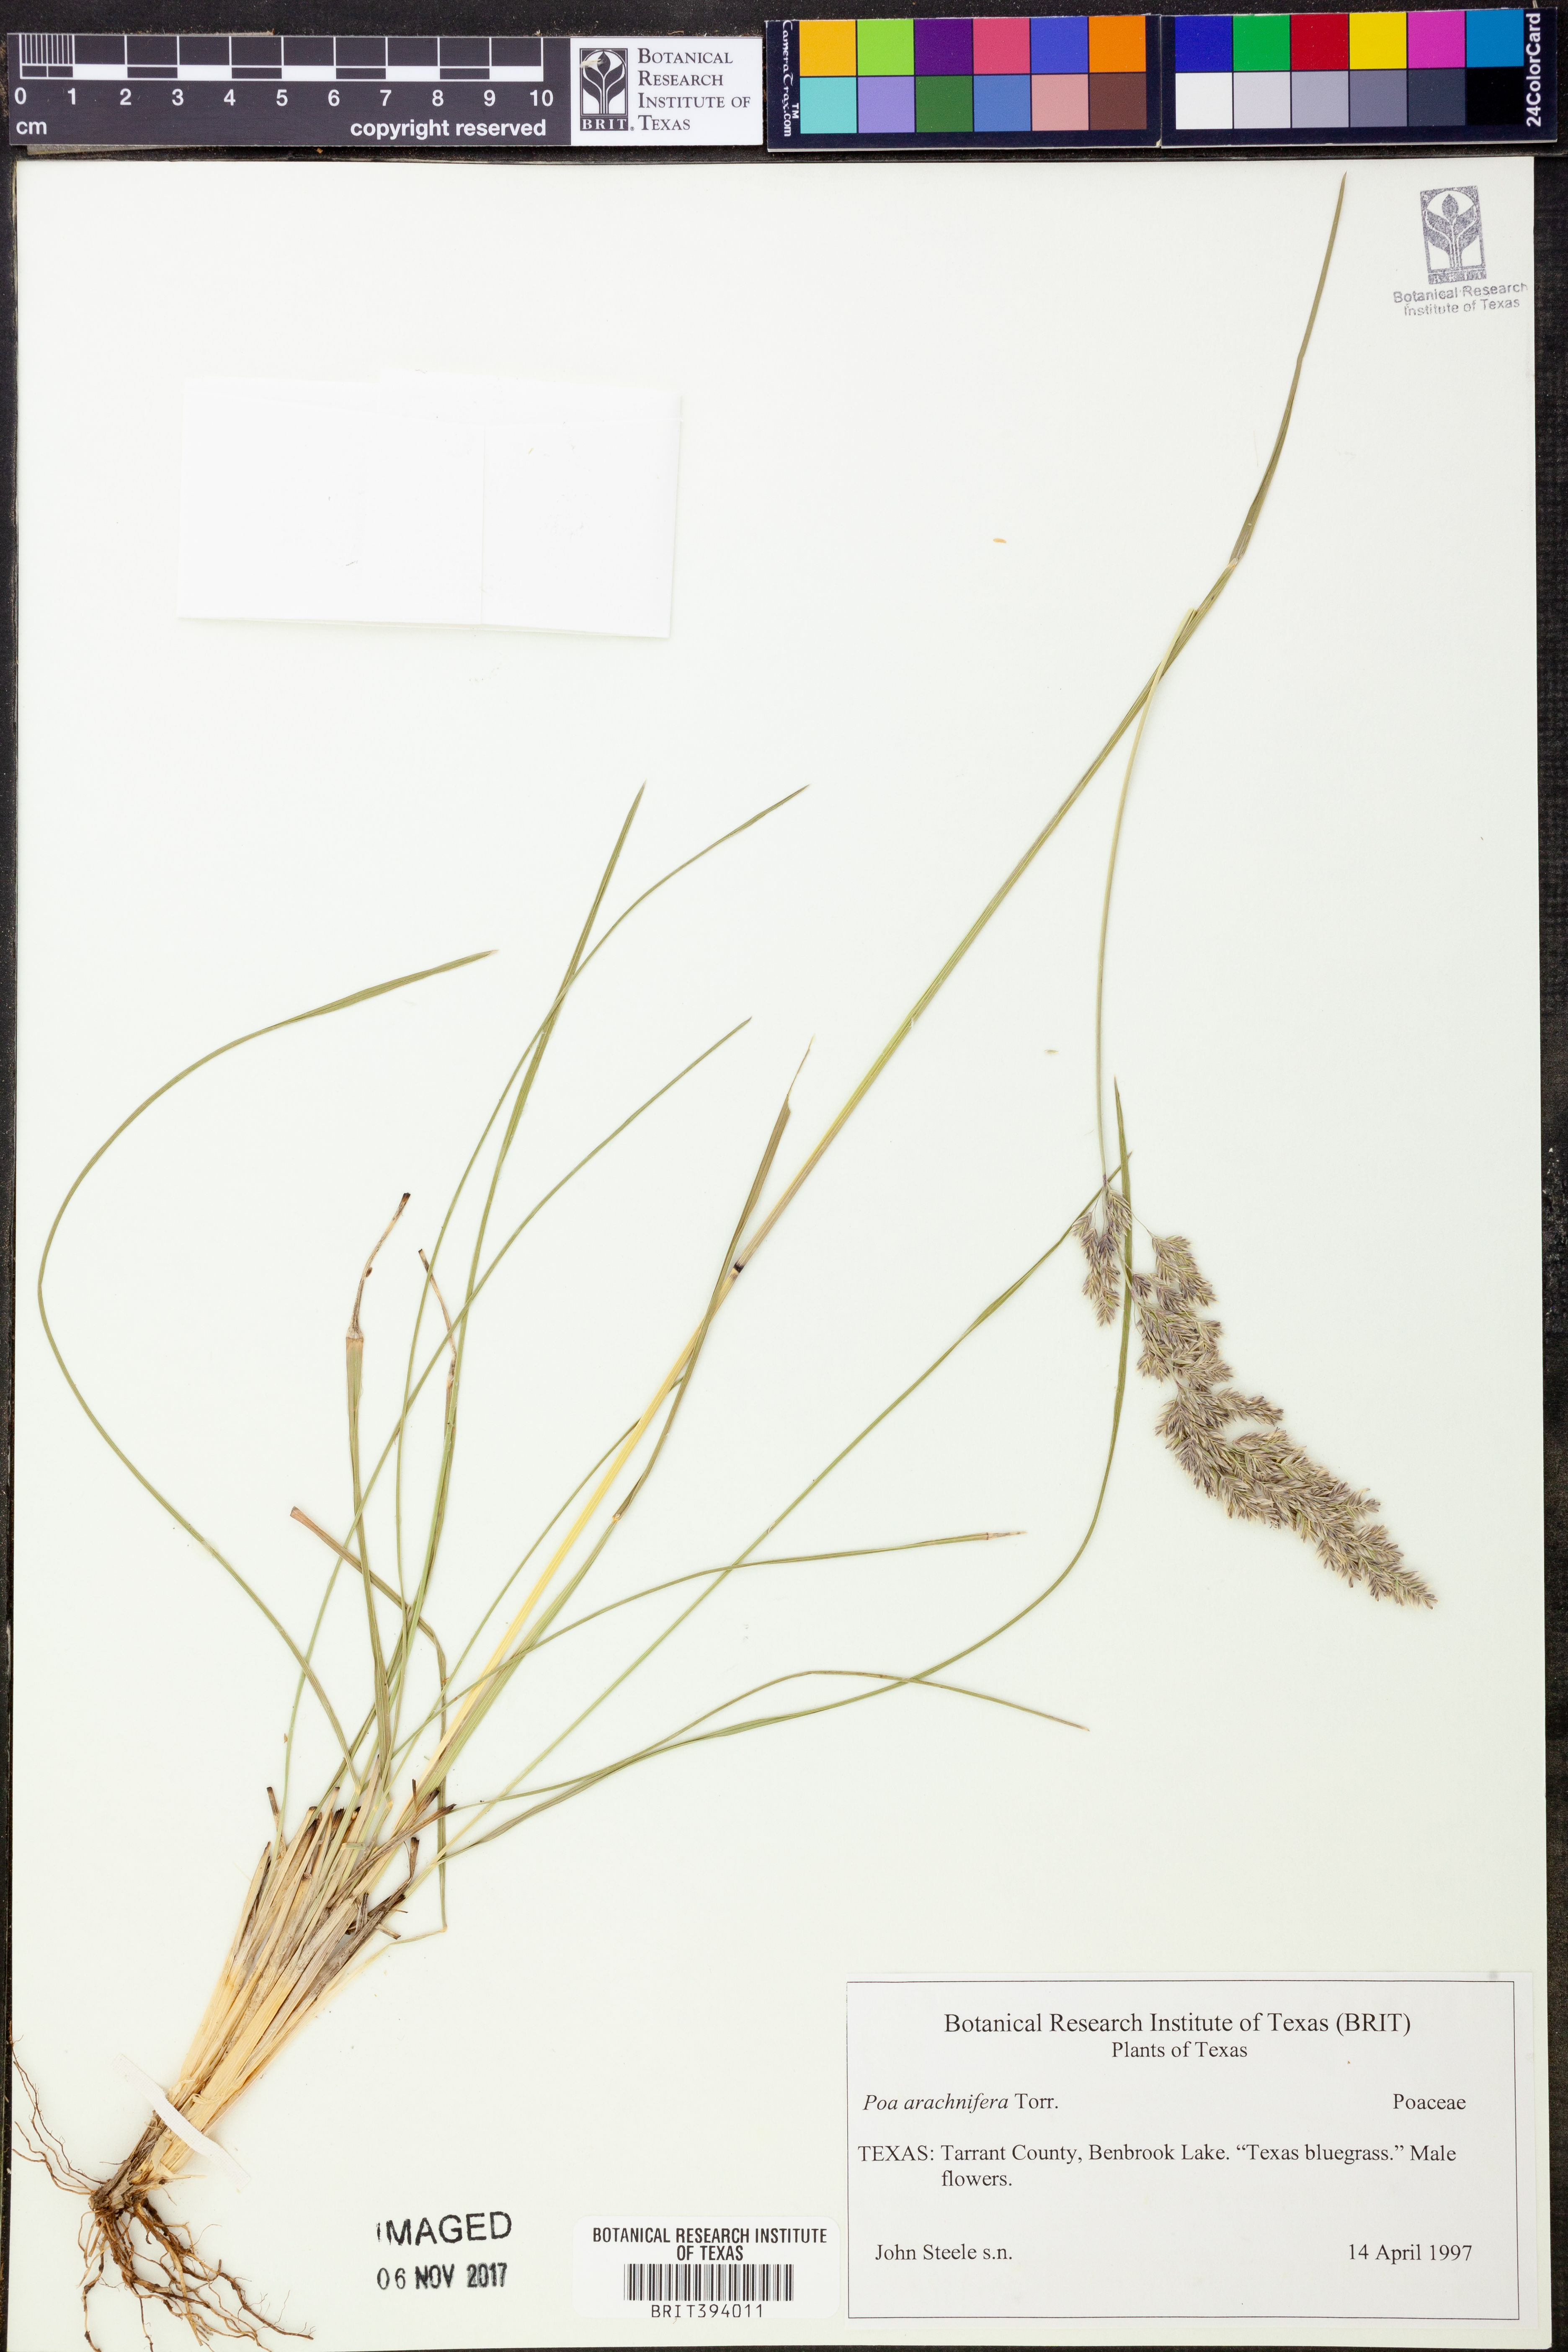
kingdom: Plantae
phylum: Tracheophyta
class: Liliopsida
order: Poales
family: Poaceae
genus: Poa
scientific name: Poa arachnifera
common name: Texas bluegrass
